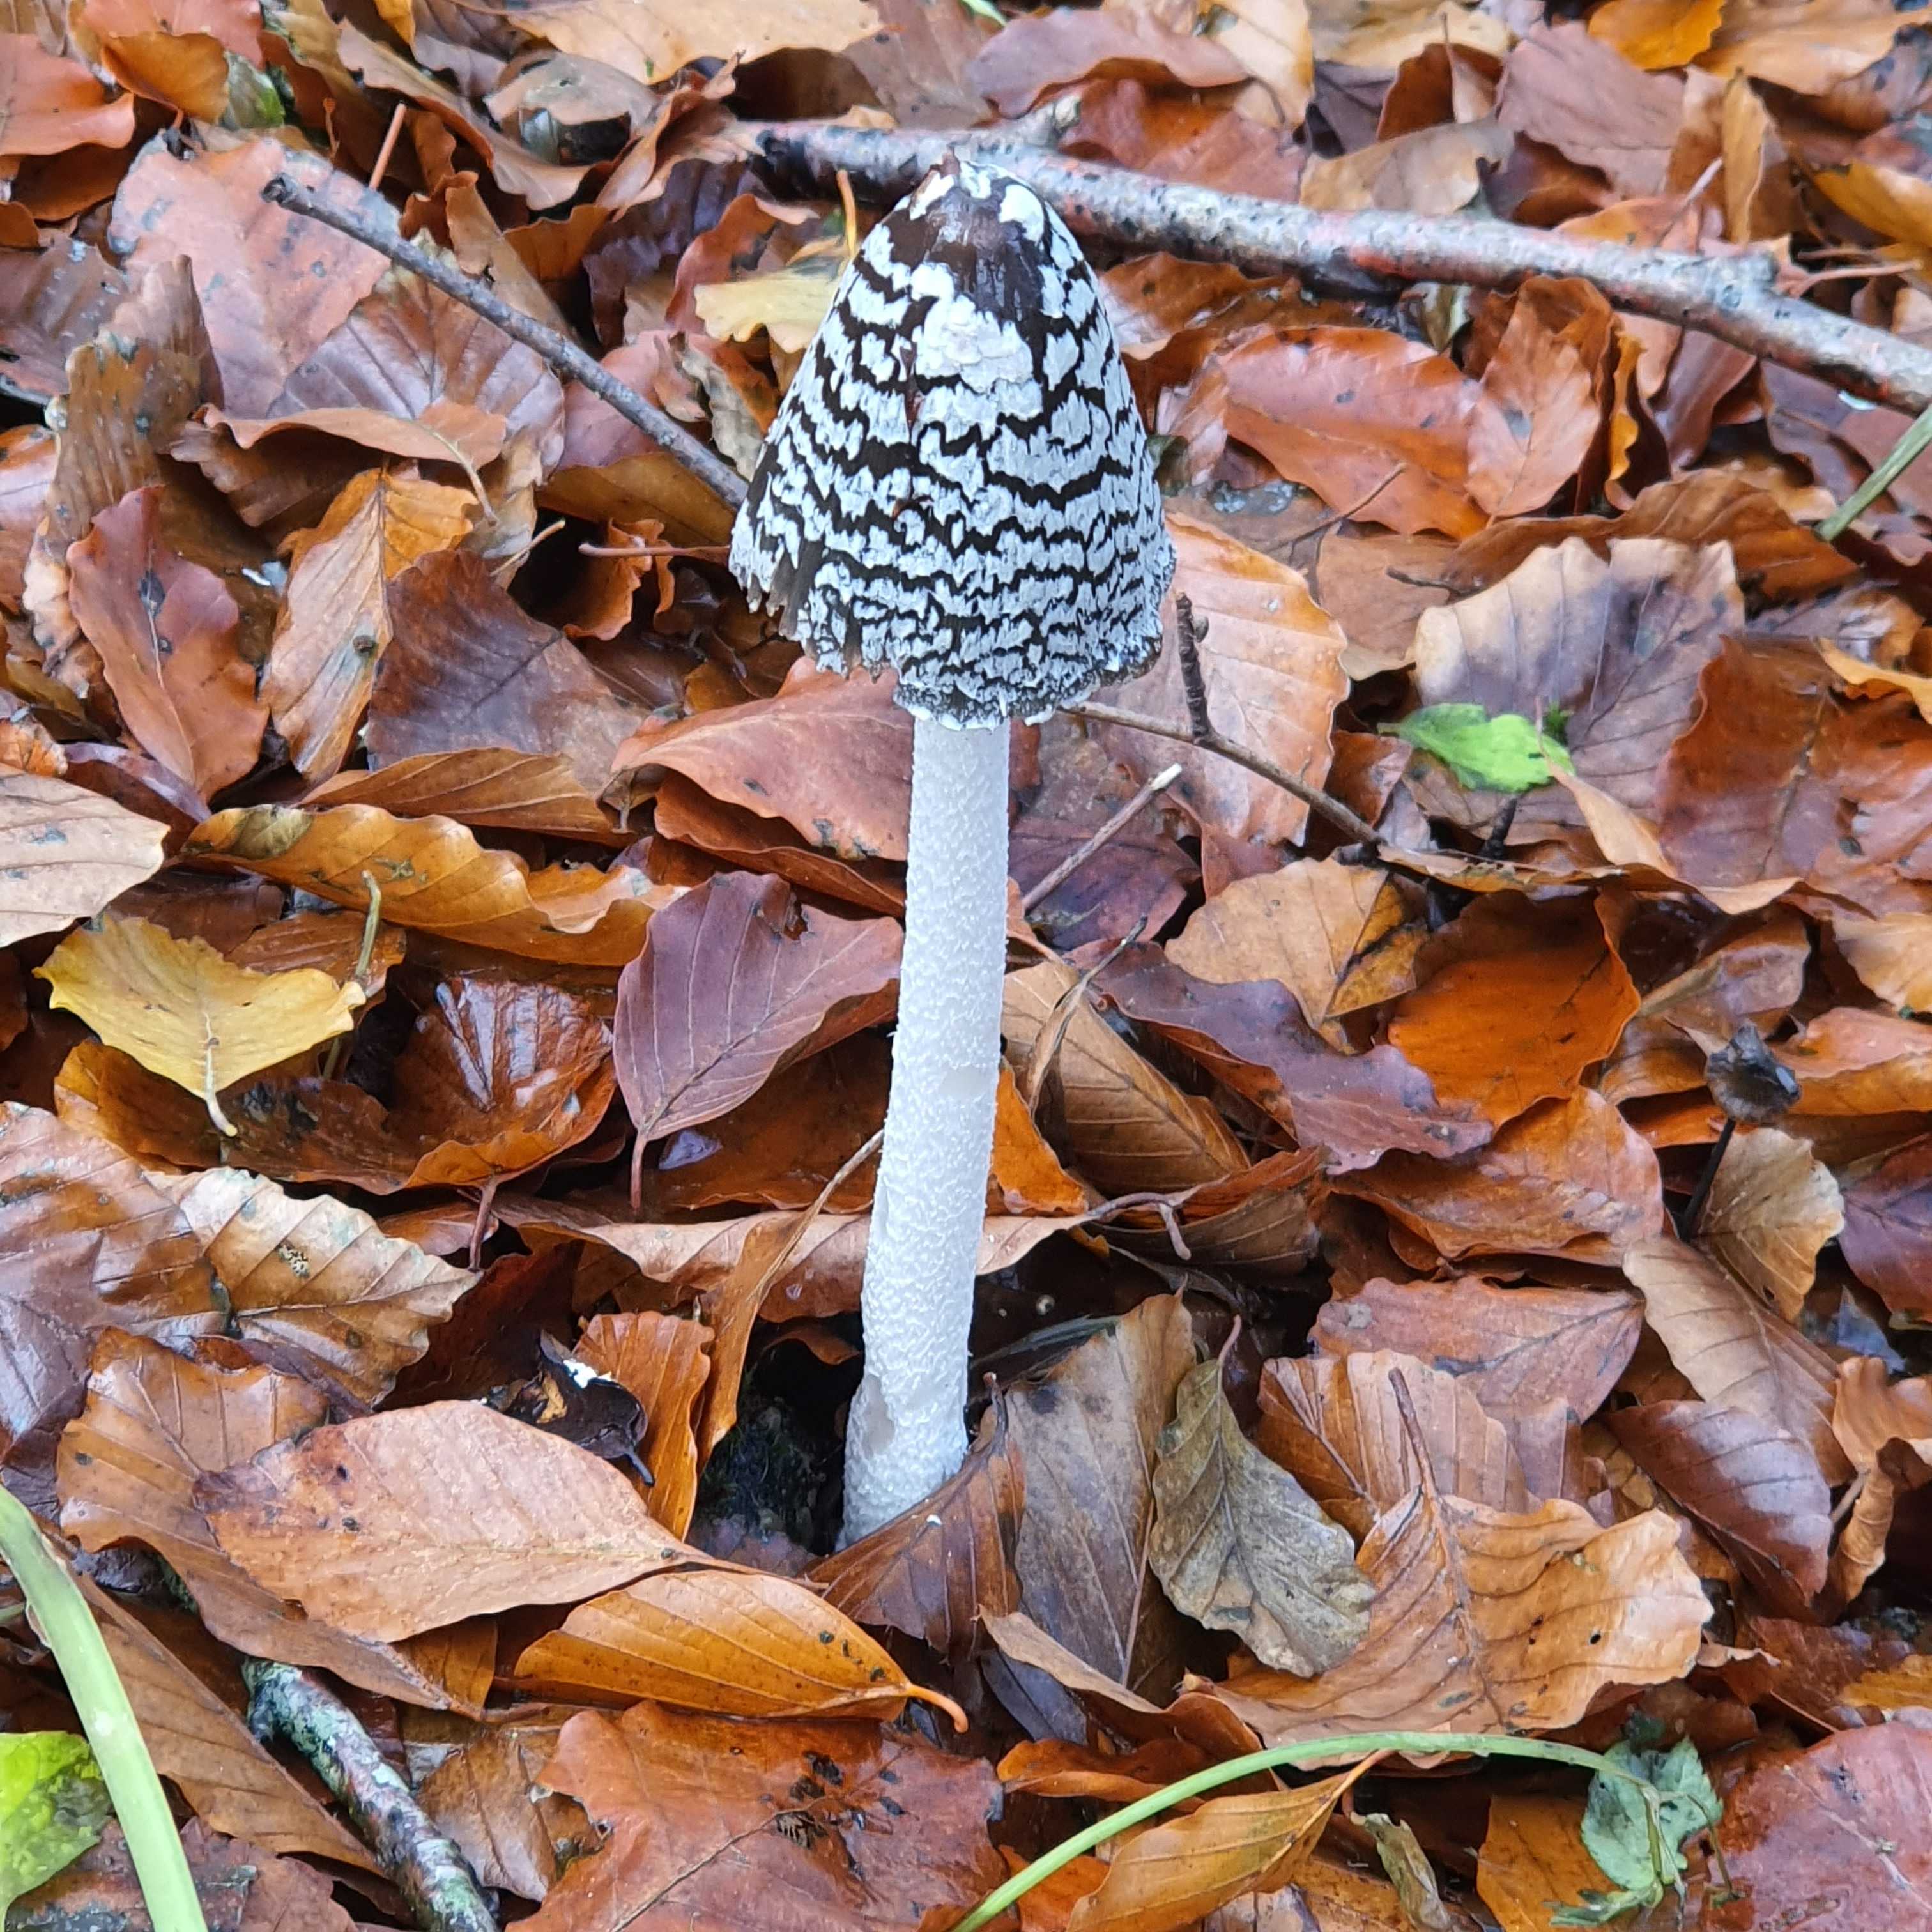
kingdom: Fungi
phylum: Basidiomycota
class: Agaricomycetes
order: Agaricales
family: Psathyrellaceae
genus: Coprinopsis
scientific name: Coprinopsis picacea
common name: skade-blækhat
